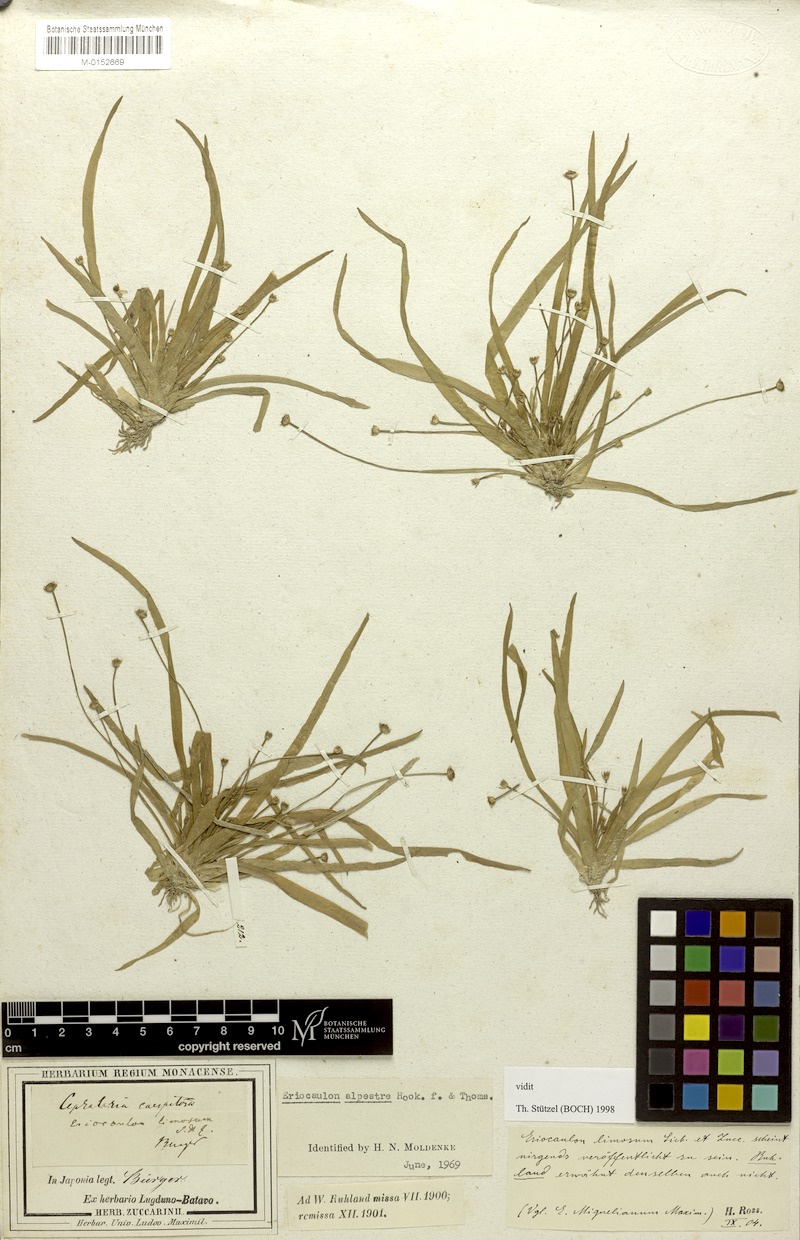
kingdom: Plantae
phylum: Tracheophyta
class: Liliopsida
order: Poales
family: Eriocaulaceae
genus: Eriocaulon
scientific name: Eriocaulon alpestre
